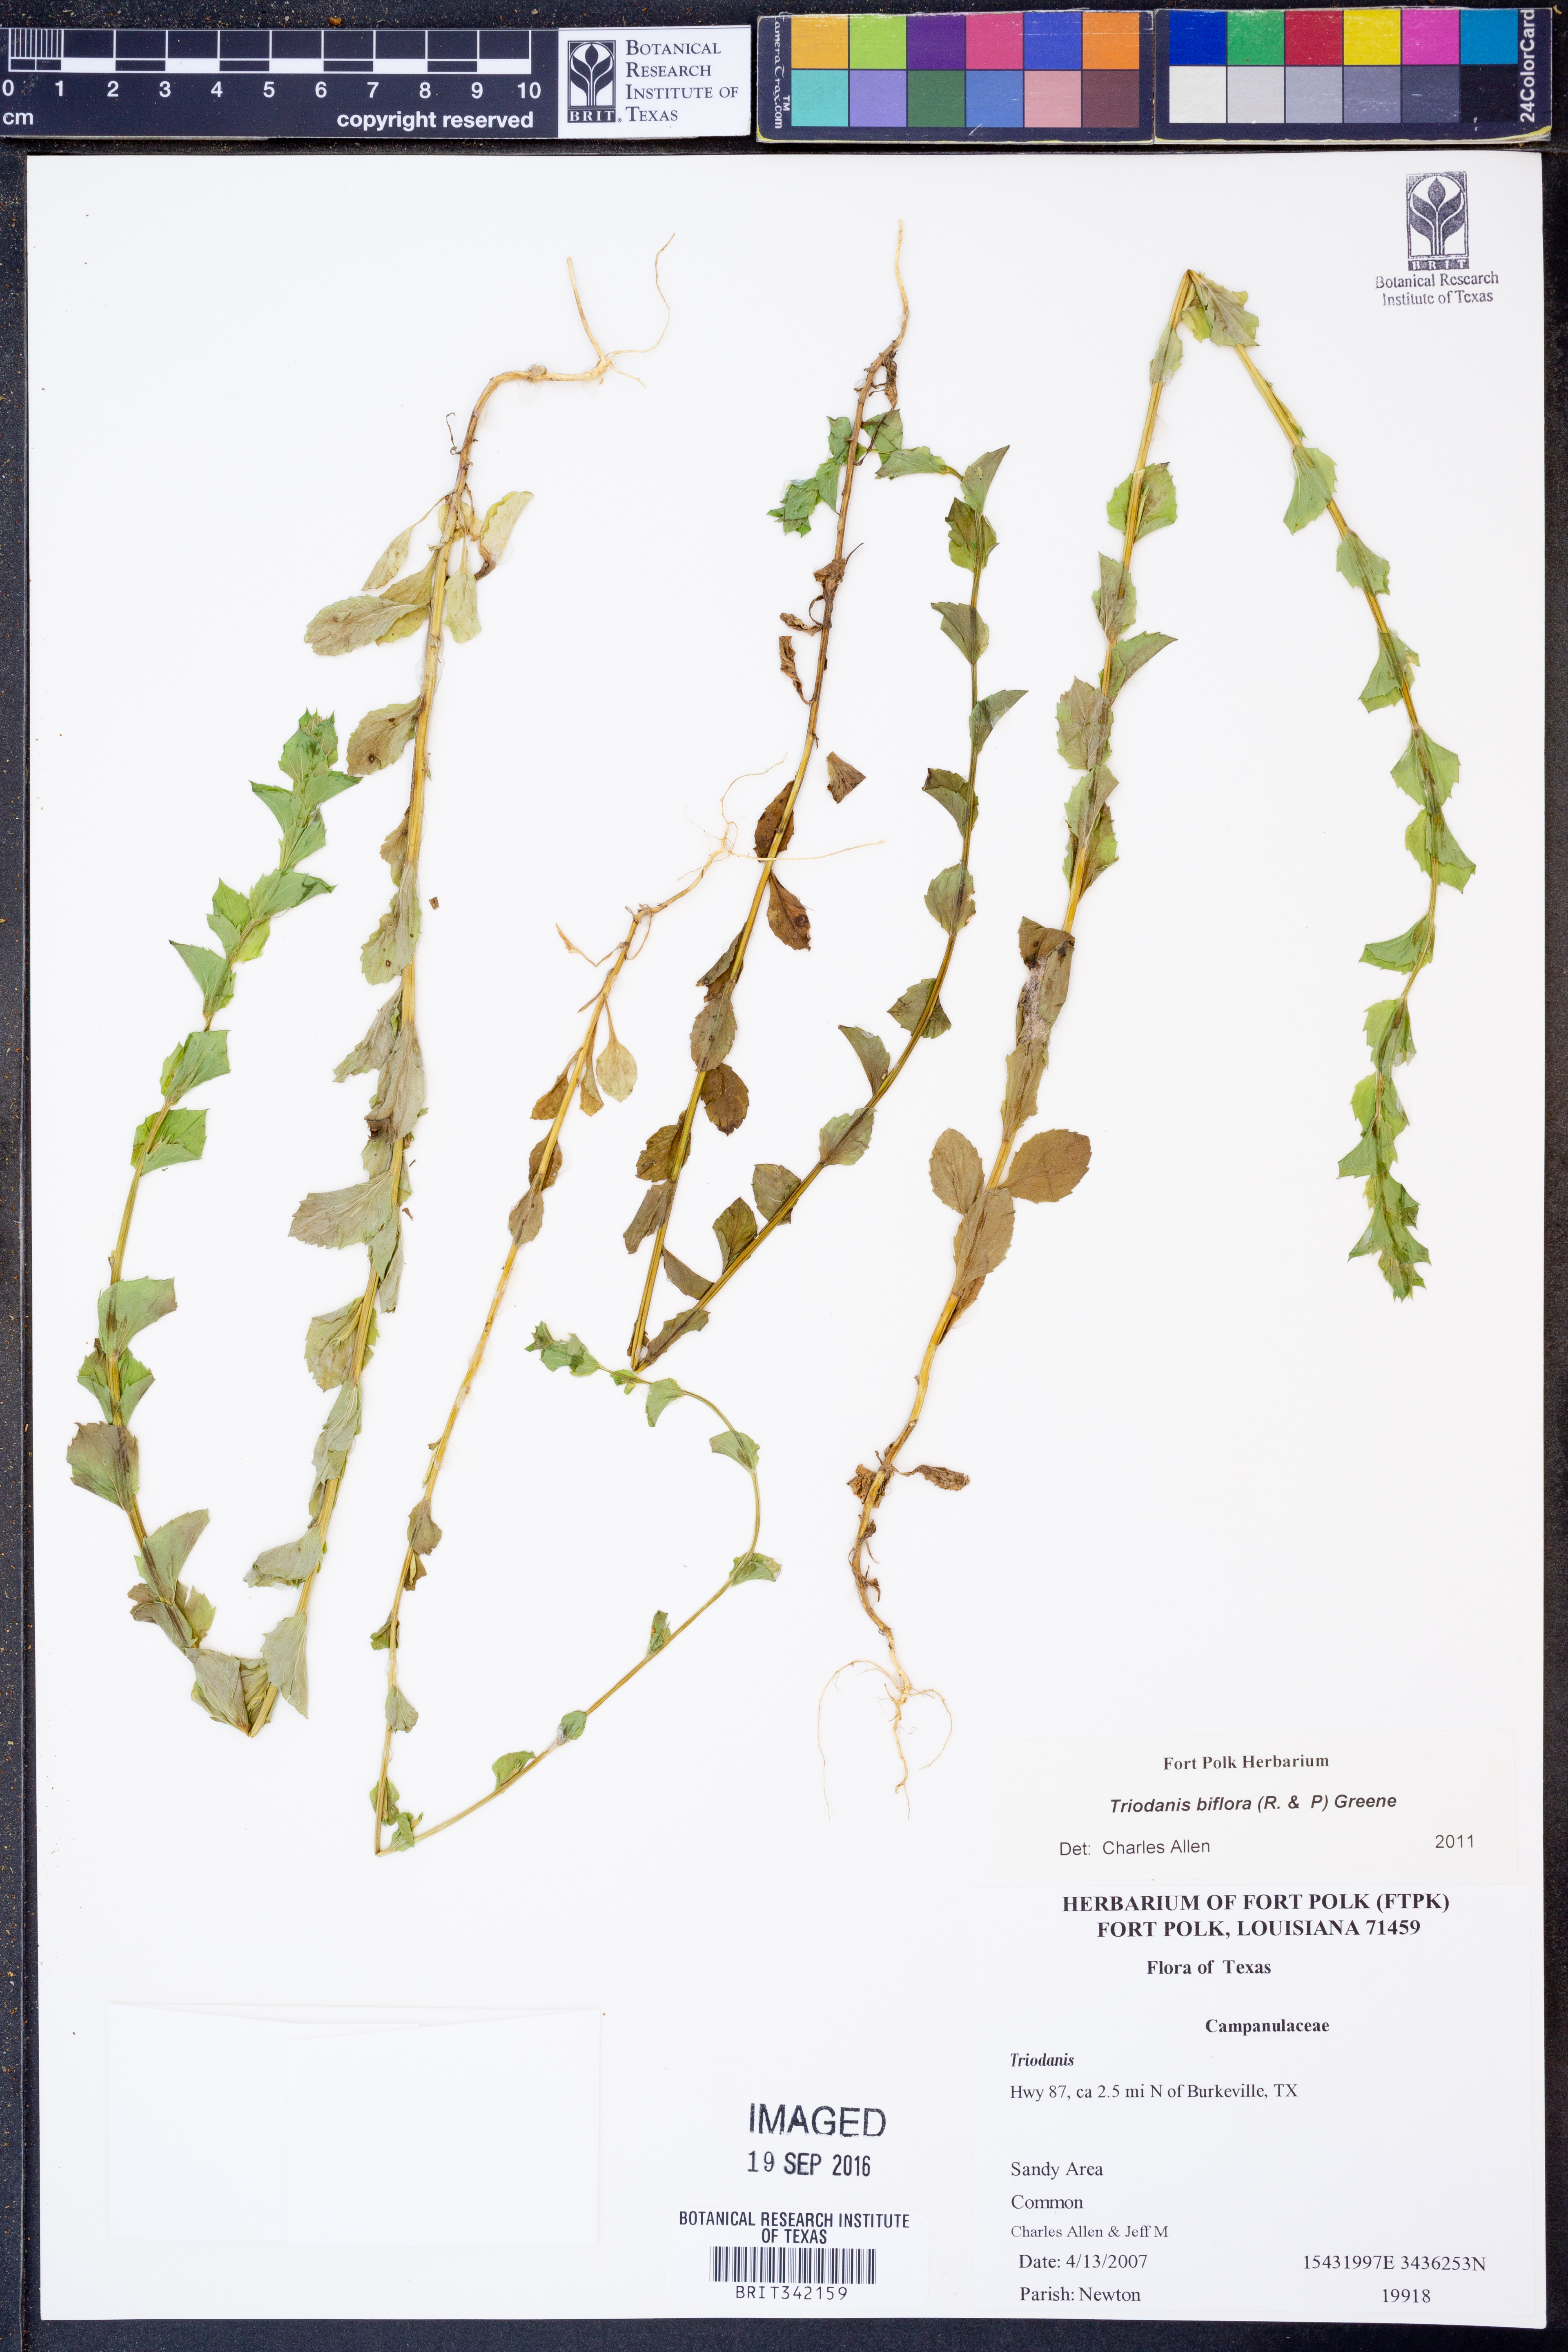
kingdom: Plantae
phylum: Tracheophyta
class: Magnoliopsida
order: Asterales
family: Campanulaceae
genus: Triodanis
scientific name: Triodanis perfoliata
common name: Clasping venus' looking-glass
